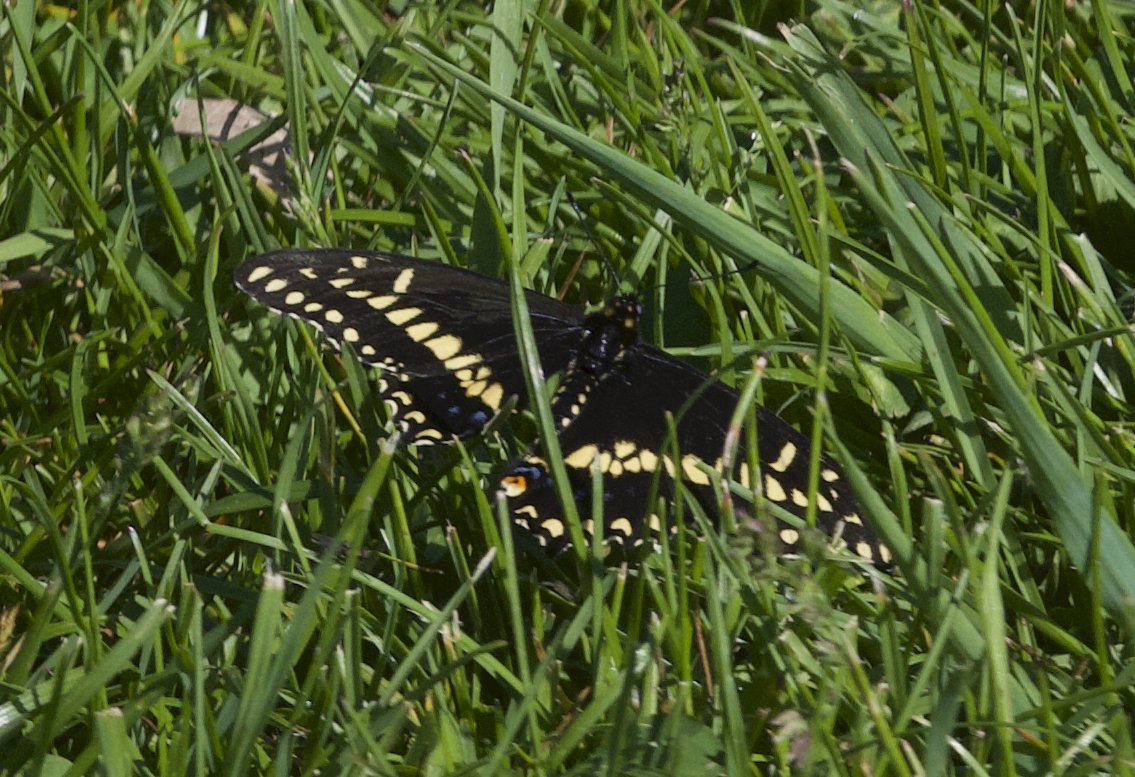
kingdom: Animalia
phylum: Arthropoda
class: Insecta
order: Lepidoptera
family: Papilionidae
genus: Papilio
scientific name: Papilio polyxenes
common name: Black Swallowtail
